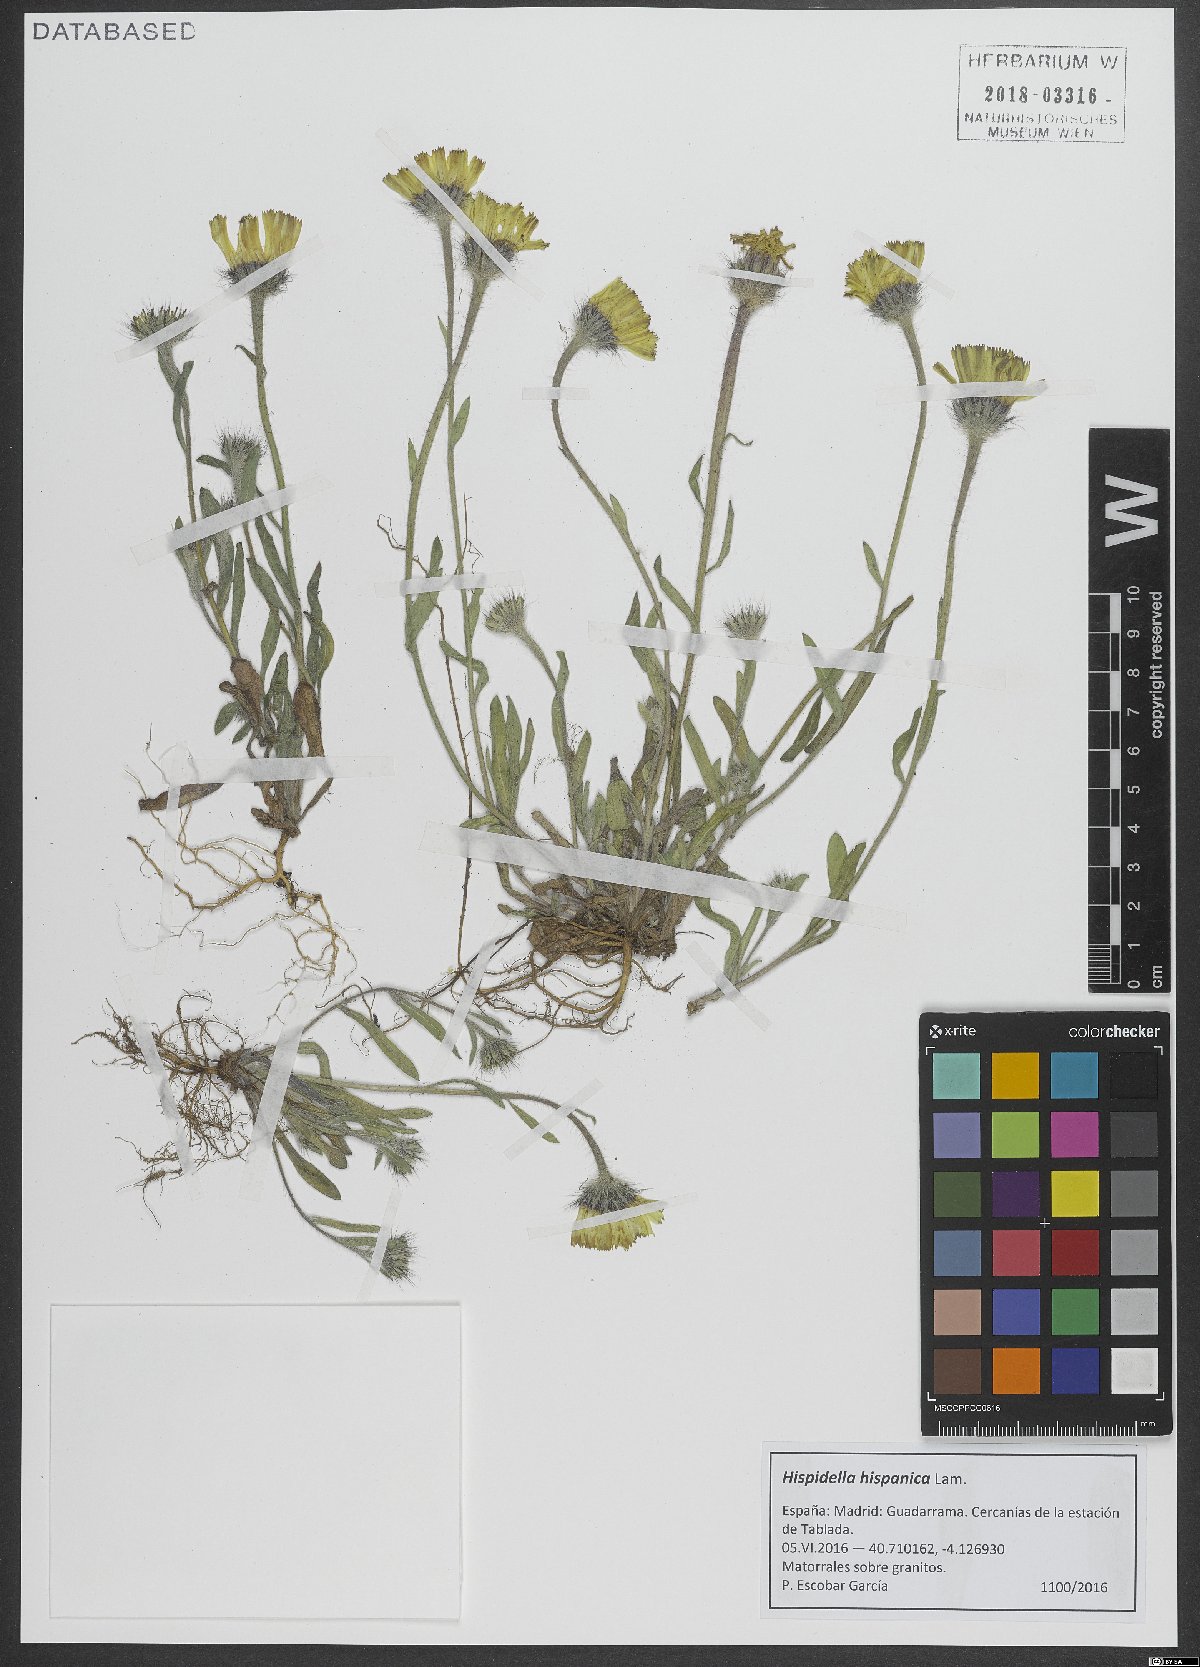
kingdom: Plantae
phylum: Tracheophyta
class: Magnoliopsida
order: Asterales
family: Asteraceae
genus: Hispidella
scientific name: Hispidella hispanica
